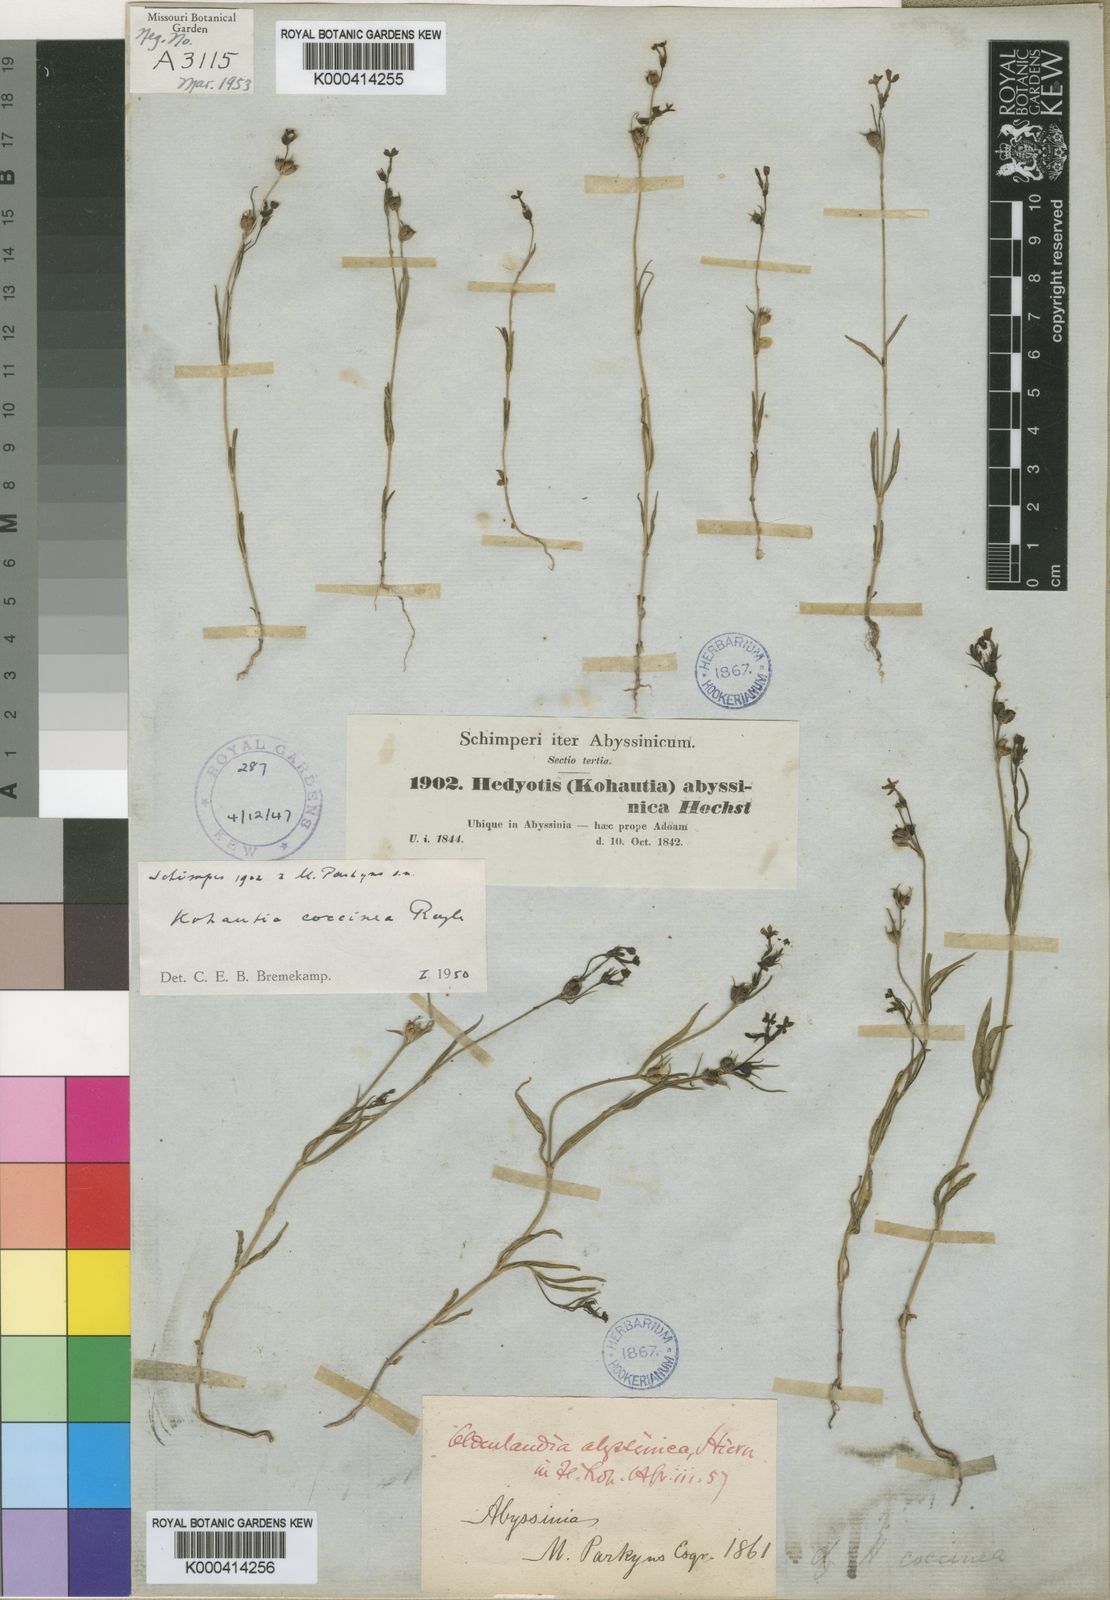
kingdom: Plantae
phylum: Tracheophyta
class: Magnoliopsida
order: Gentianales
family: Rubiaceae
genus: Kohautia
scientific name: Kohautia coccinea
